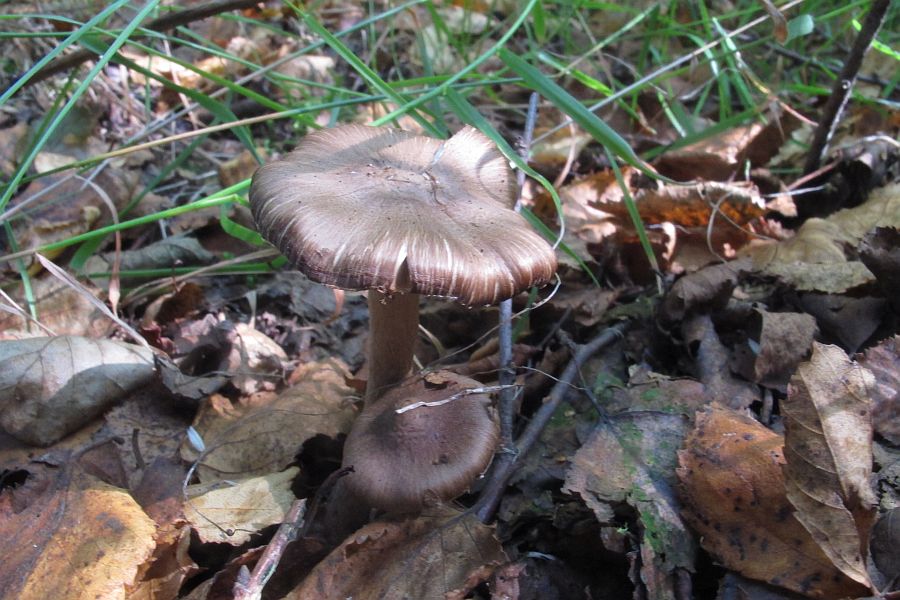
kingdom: Fungi
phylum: Basidiomycota
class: Agaricomycetes
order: Agaricales
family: Inocybaceae
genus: Inocybe
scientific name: Inocybe napipes
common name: roeknoldet trævlhat
